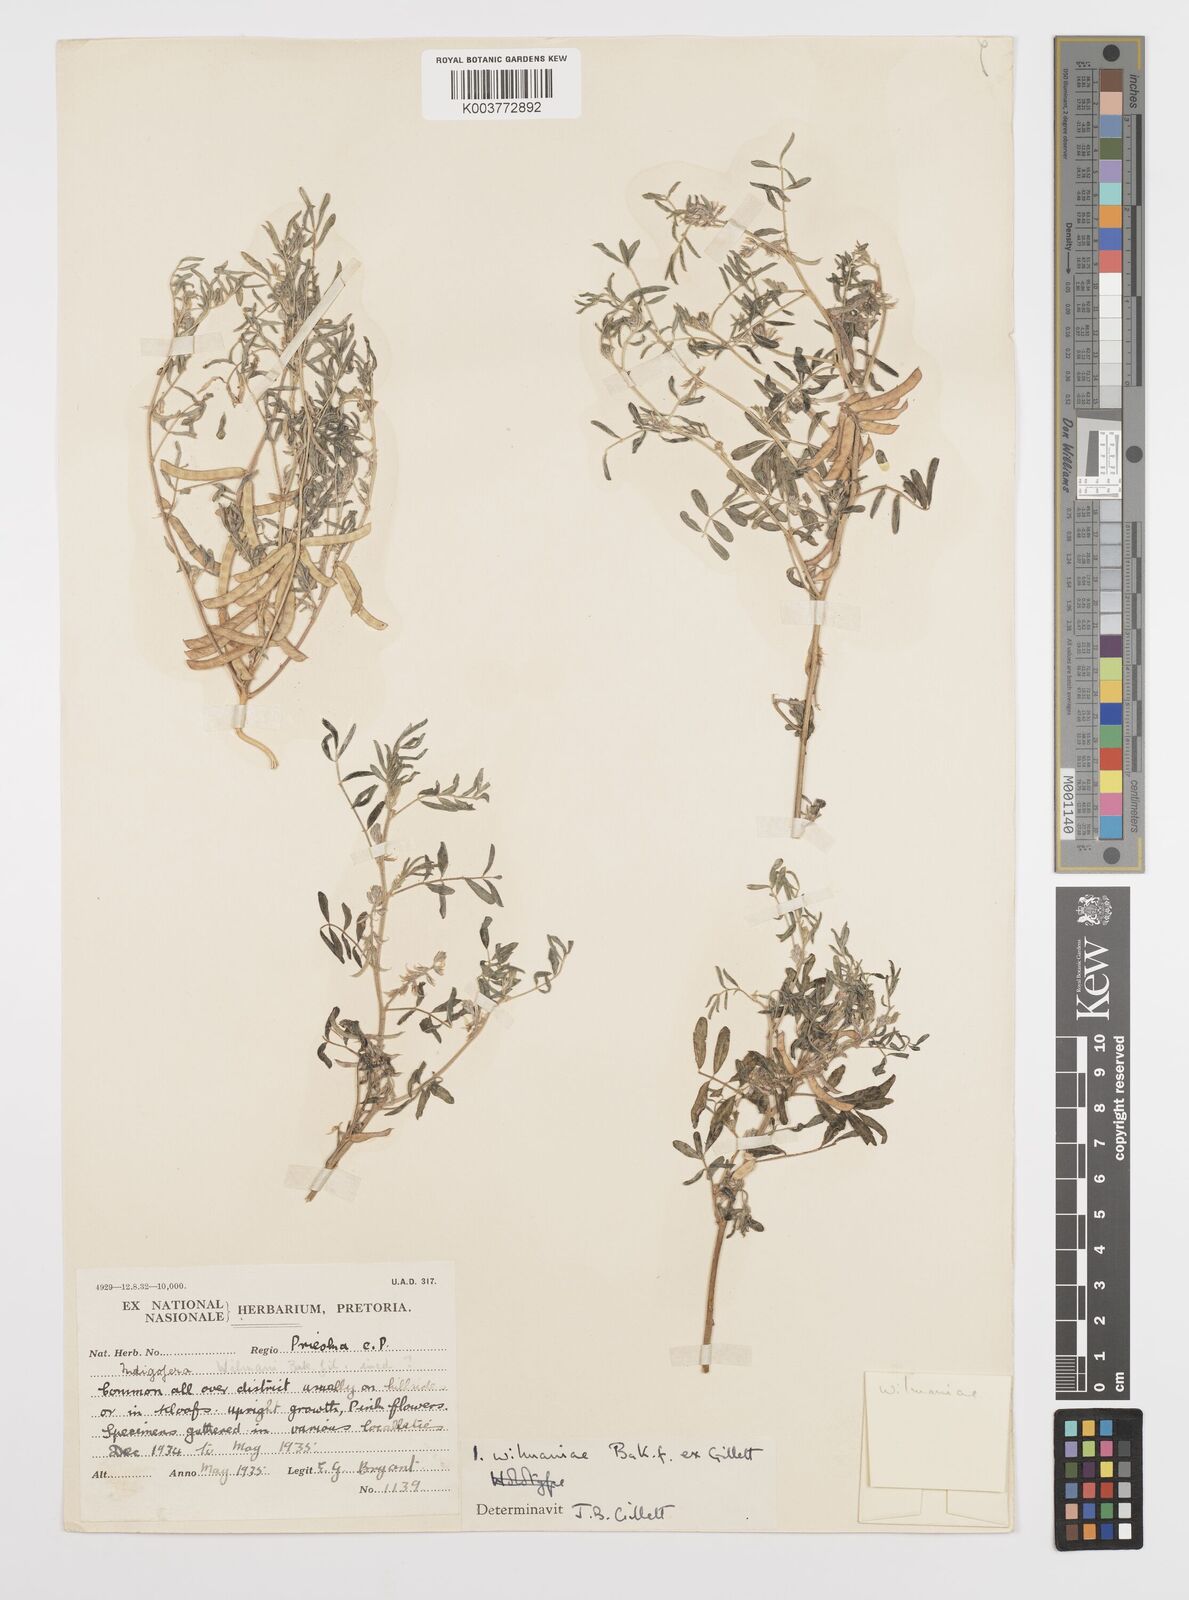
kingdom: Plantae
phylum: Tracheophyta
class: Magnoliopsida
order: Fabales
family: Fabaceae
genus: Indigofera
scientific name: Indigofera damarana
